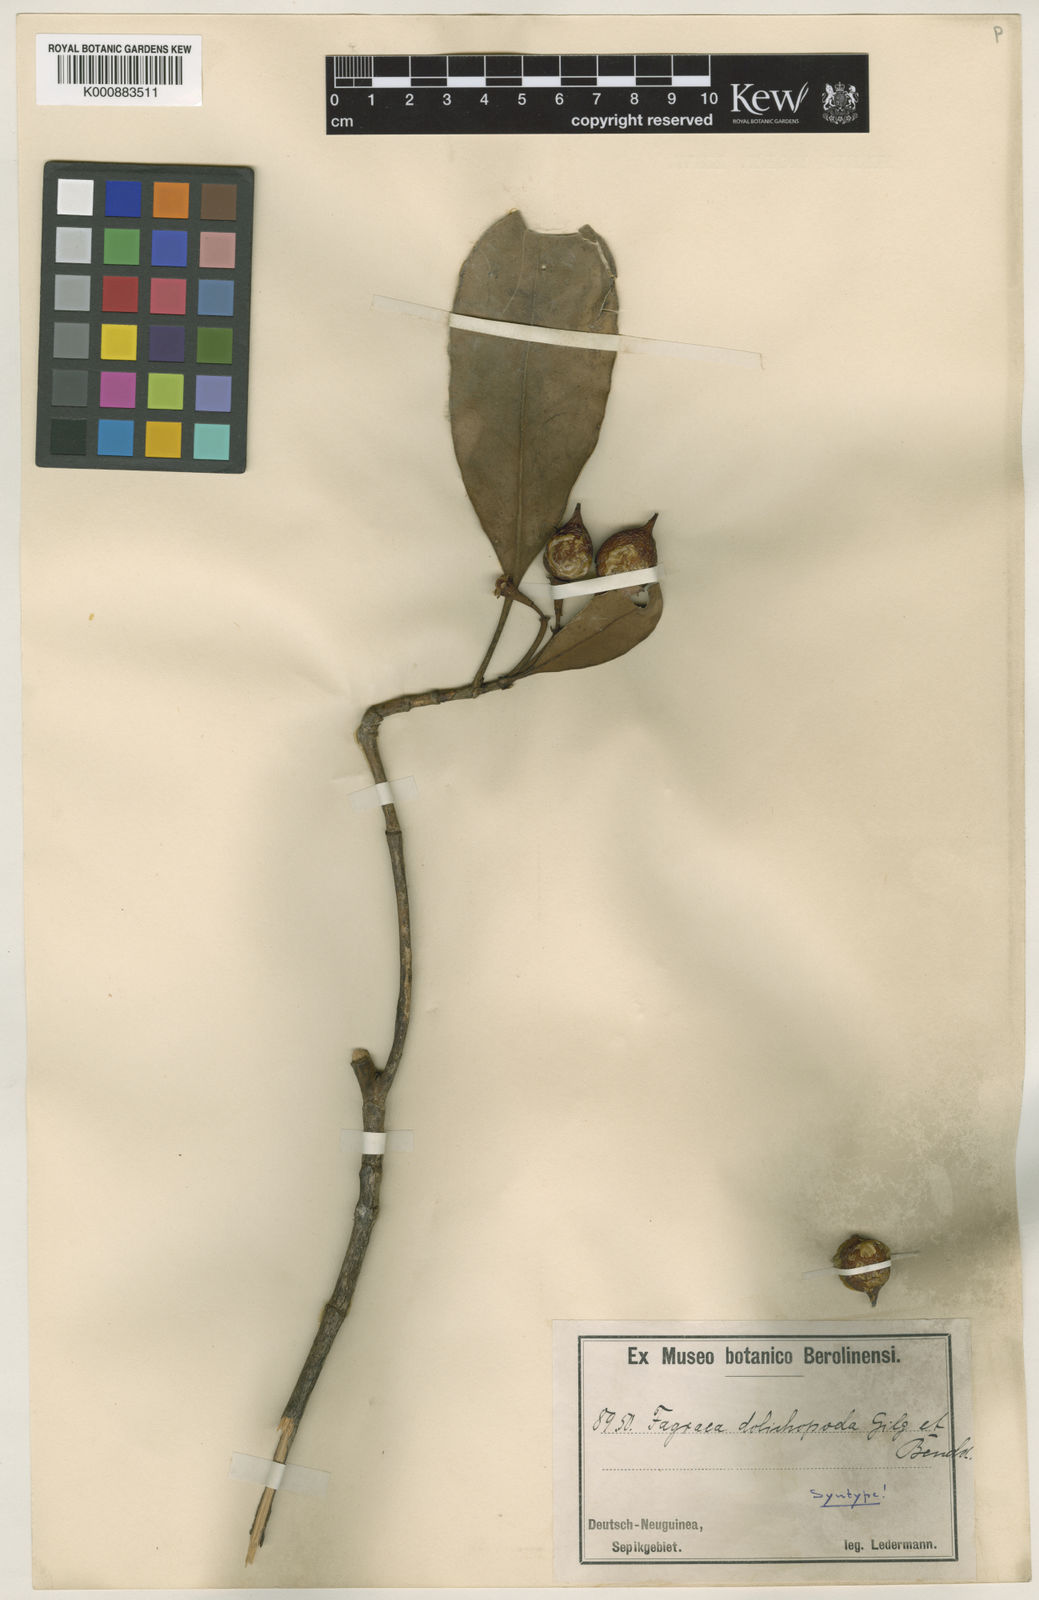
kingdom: Plantae
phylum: Tracheophyta
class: Magnoliopsida
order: Gentianales
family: Gentianaceae
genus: Fagraea
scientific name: Fagraea gracilipes
